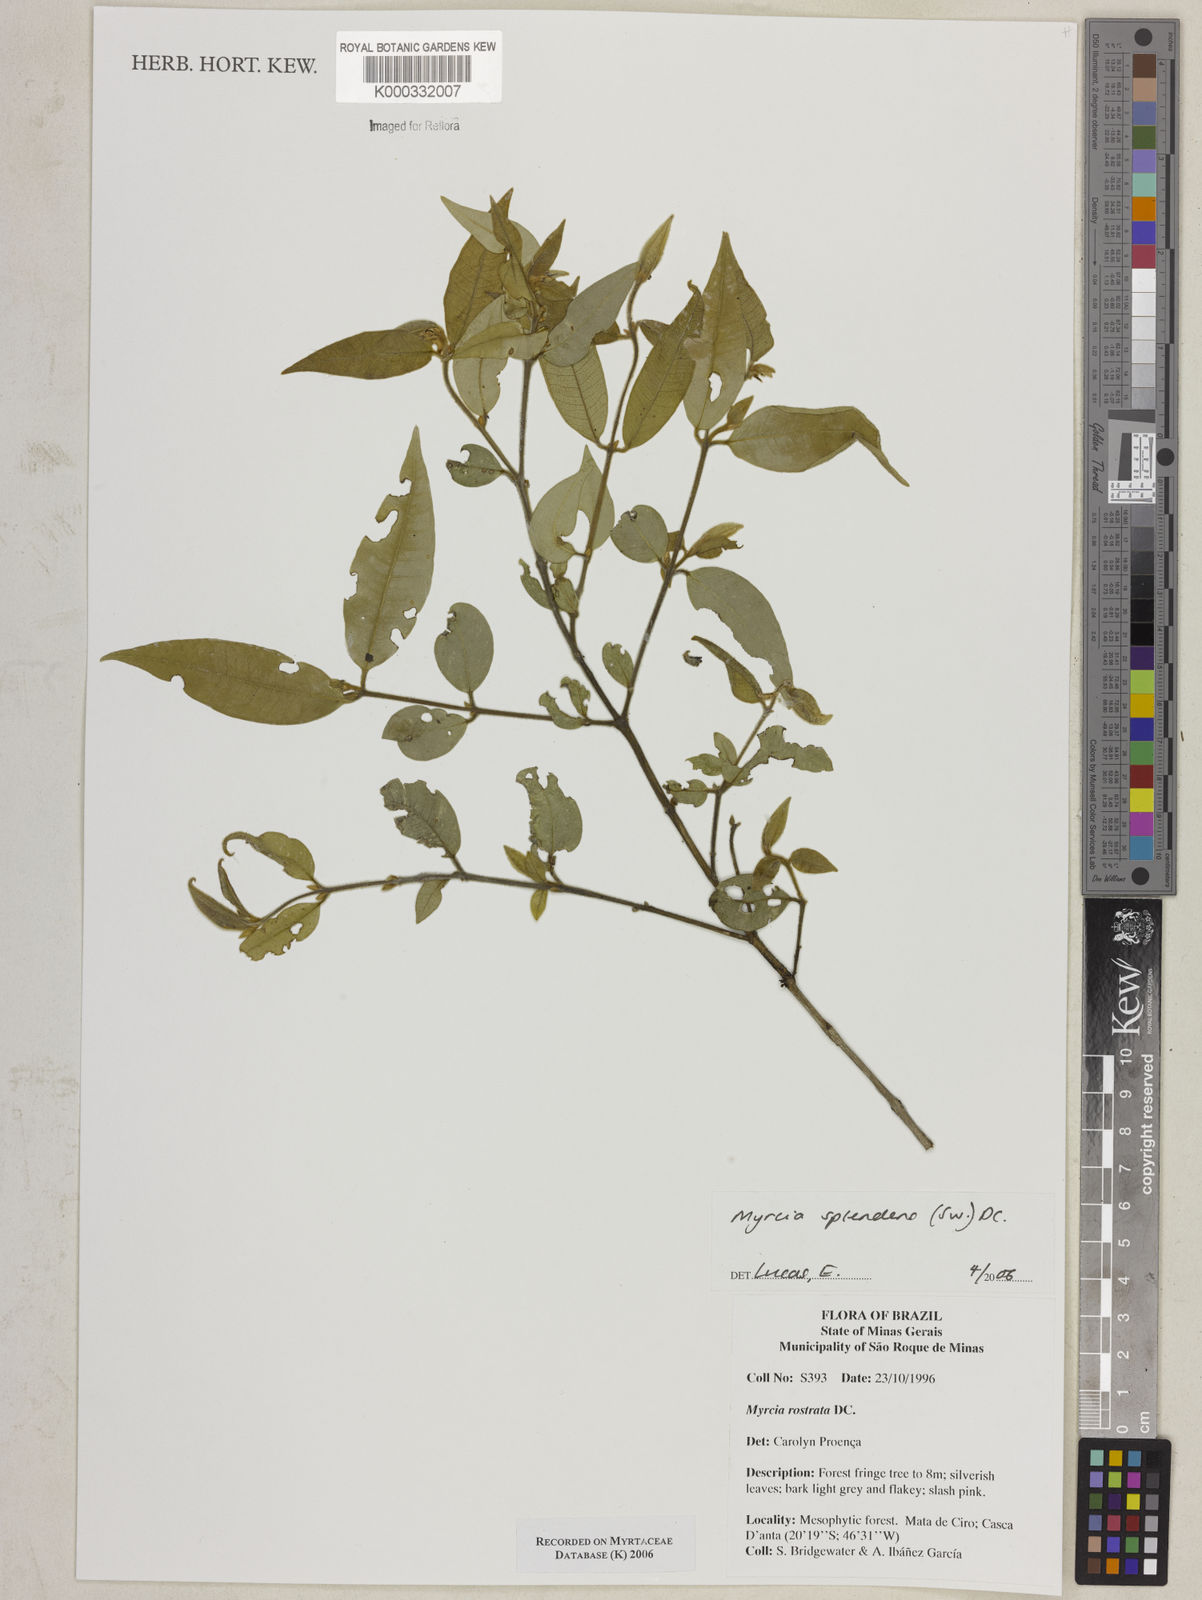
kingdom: Plantae
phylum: Tracheophyta
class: Magnoliopsida
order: Myrtales
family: Myrtaceae
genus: Myrcia
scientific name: Myrcia splendens
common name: Surinam cherry
